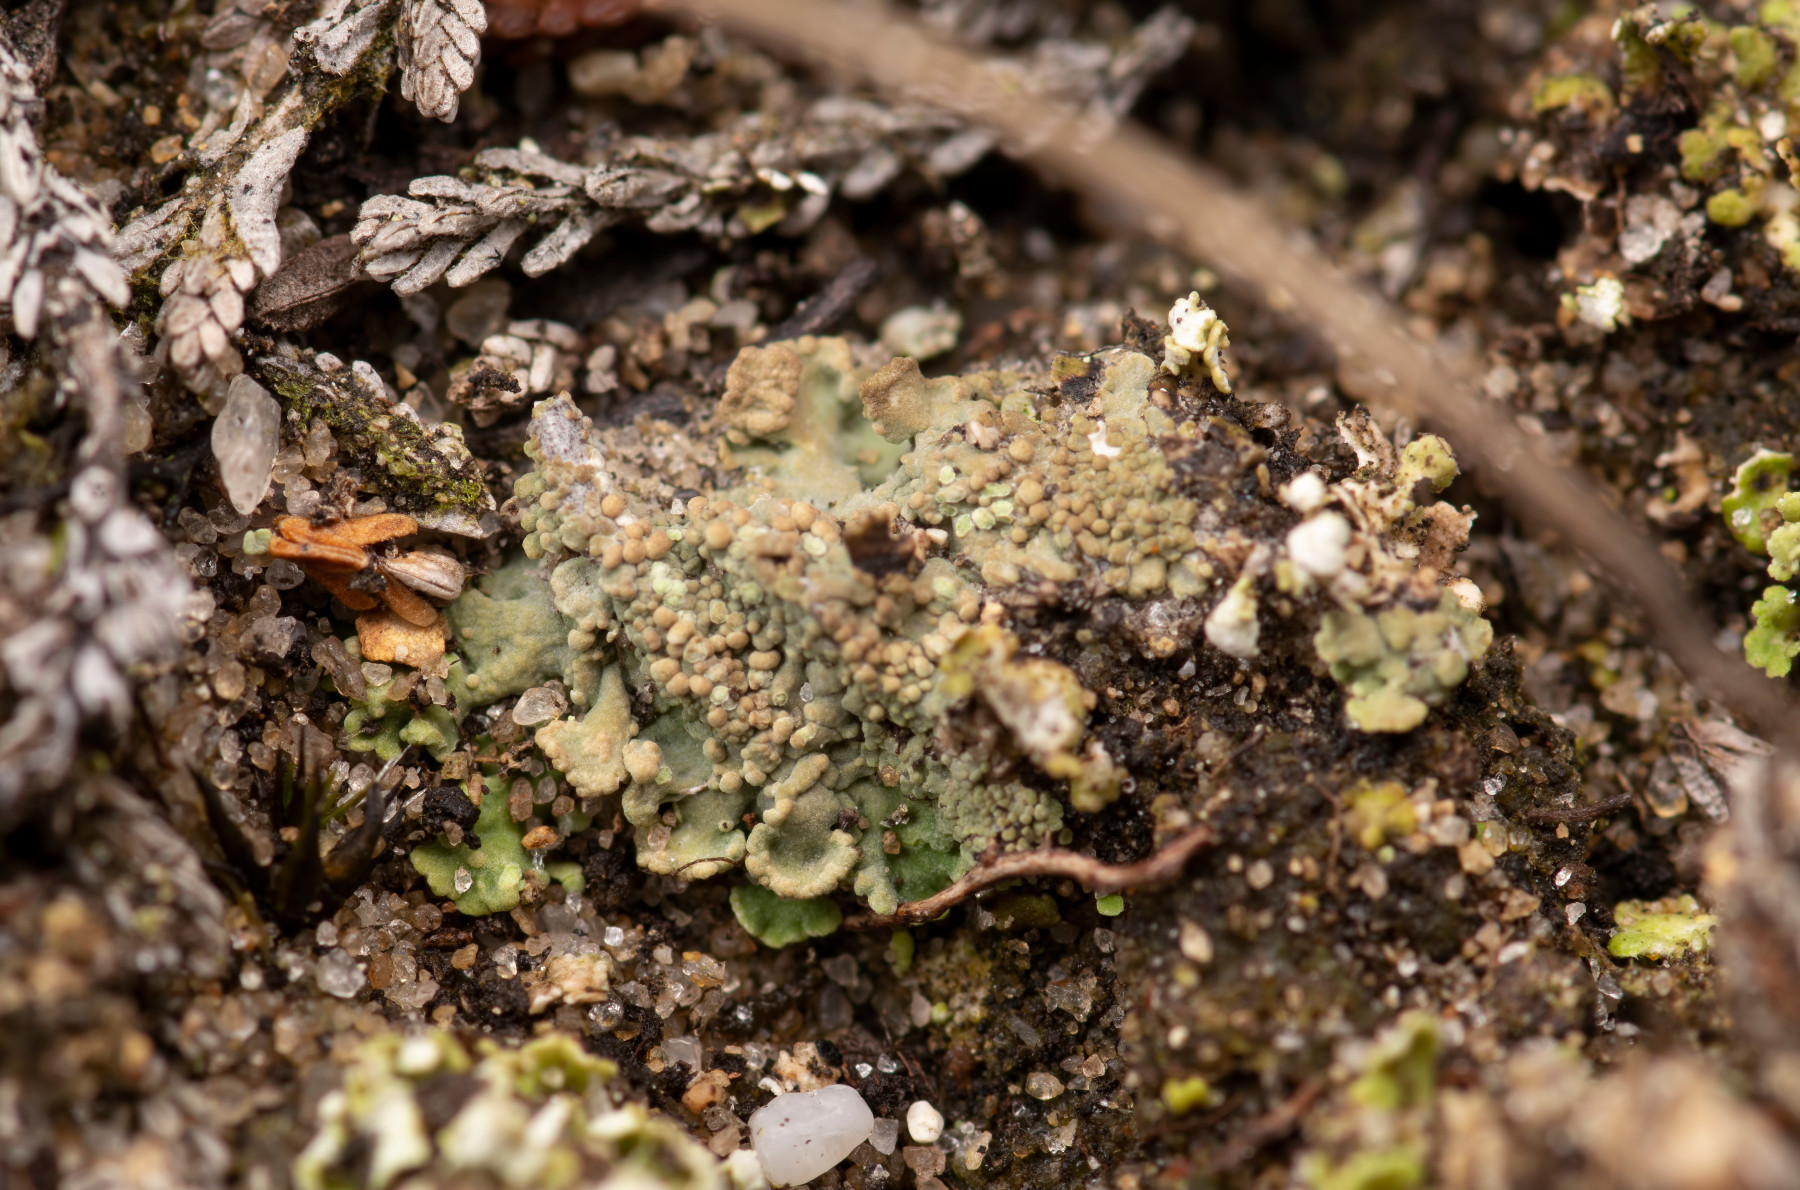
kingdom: Fungi
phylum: Ascomycota
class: Lecanoromycetes
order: Baeomycetales
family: Baeomycetaceae
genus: Baeomyces
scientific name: Baeomyces placophyllus
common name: bredfliget svampelav
